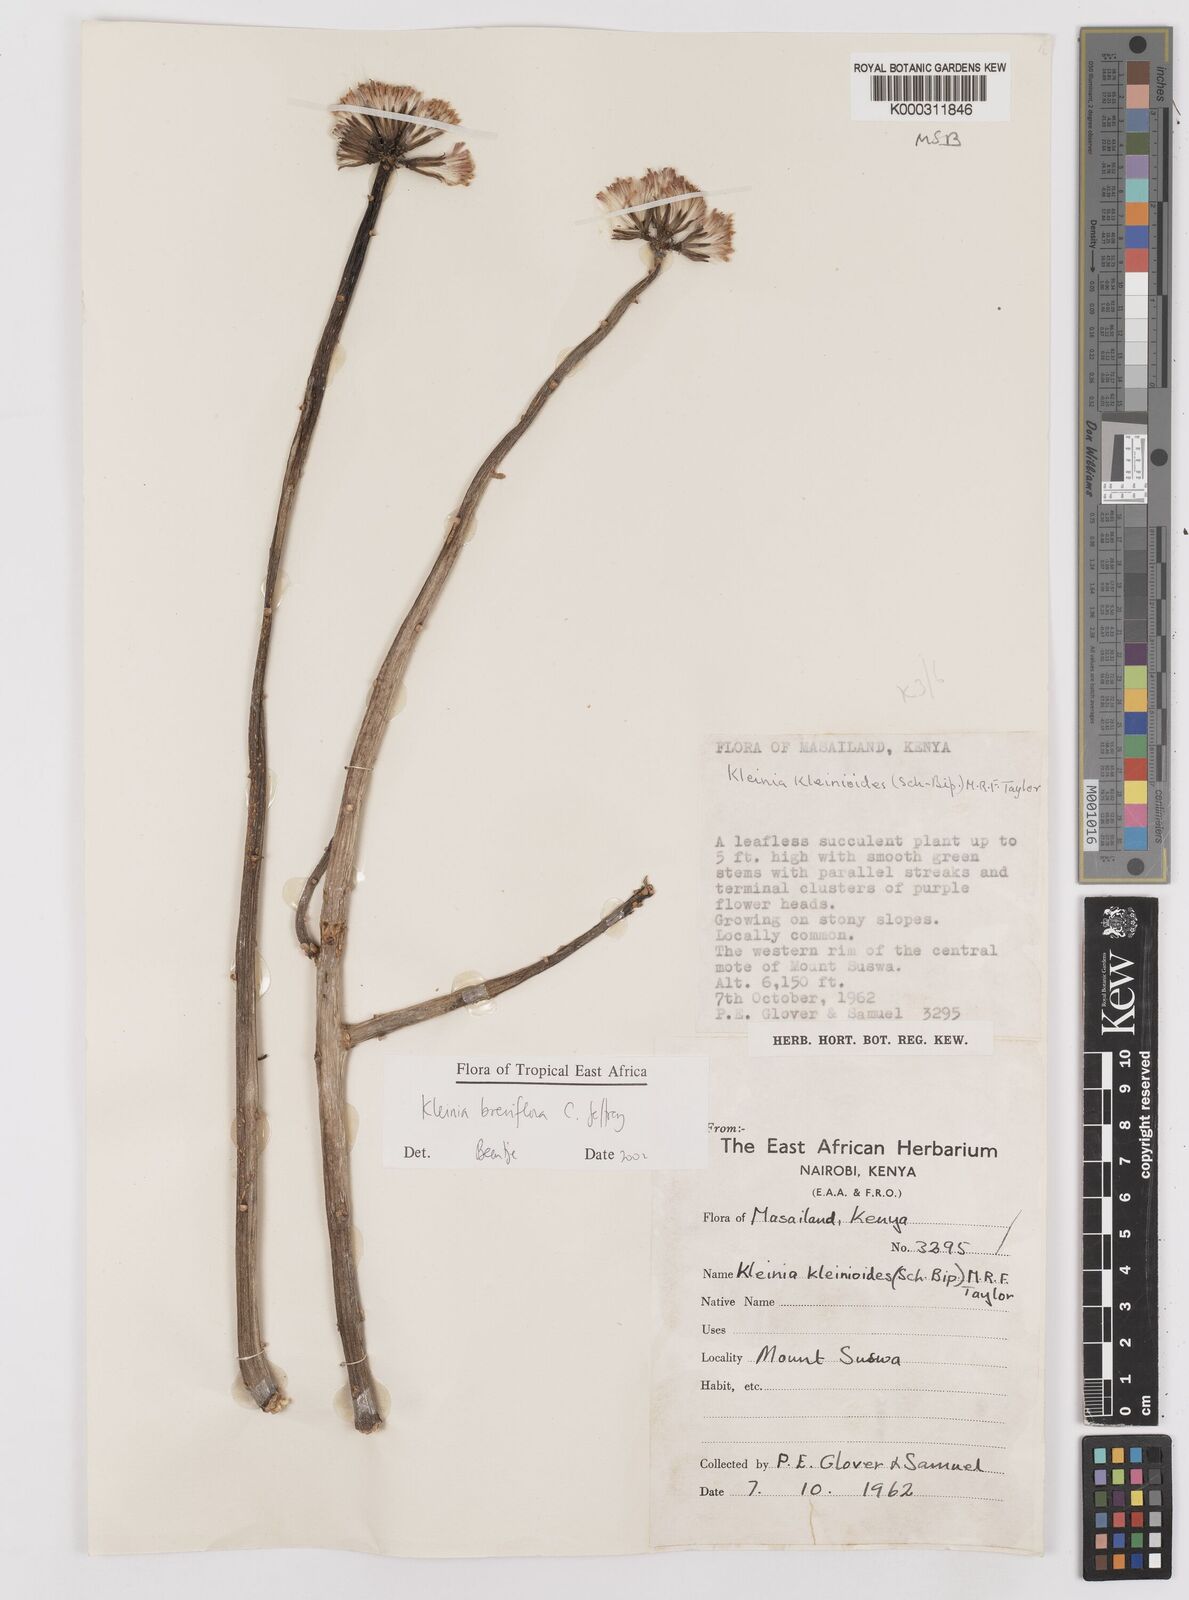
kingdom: Plantae
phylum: Tracheophyta
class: Magnoliopsida
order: Asterales
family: Asteraceae
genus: Kleinia
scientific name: Kleinia polycotoma
